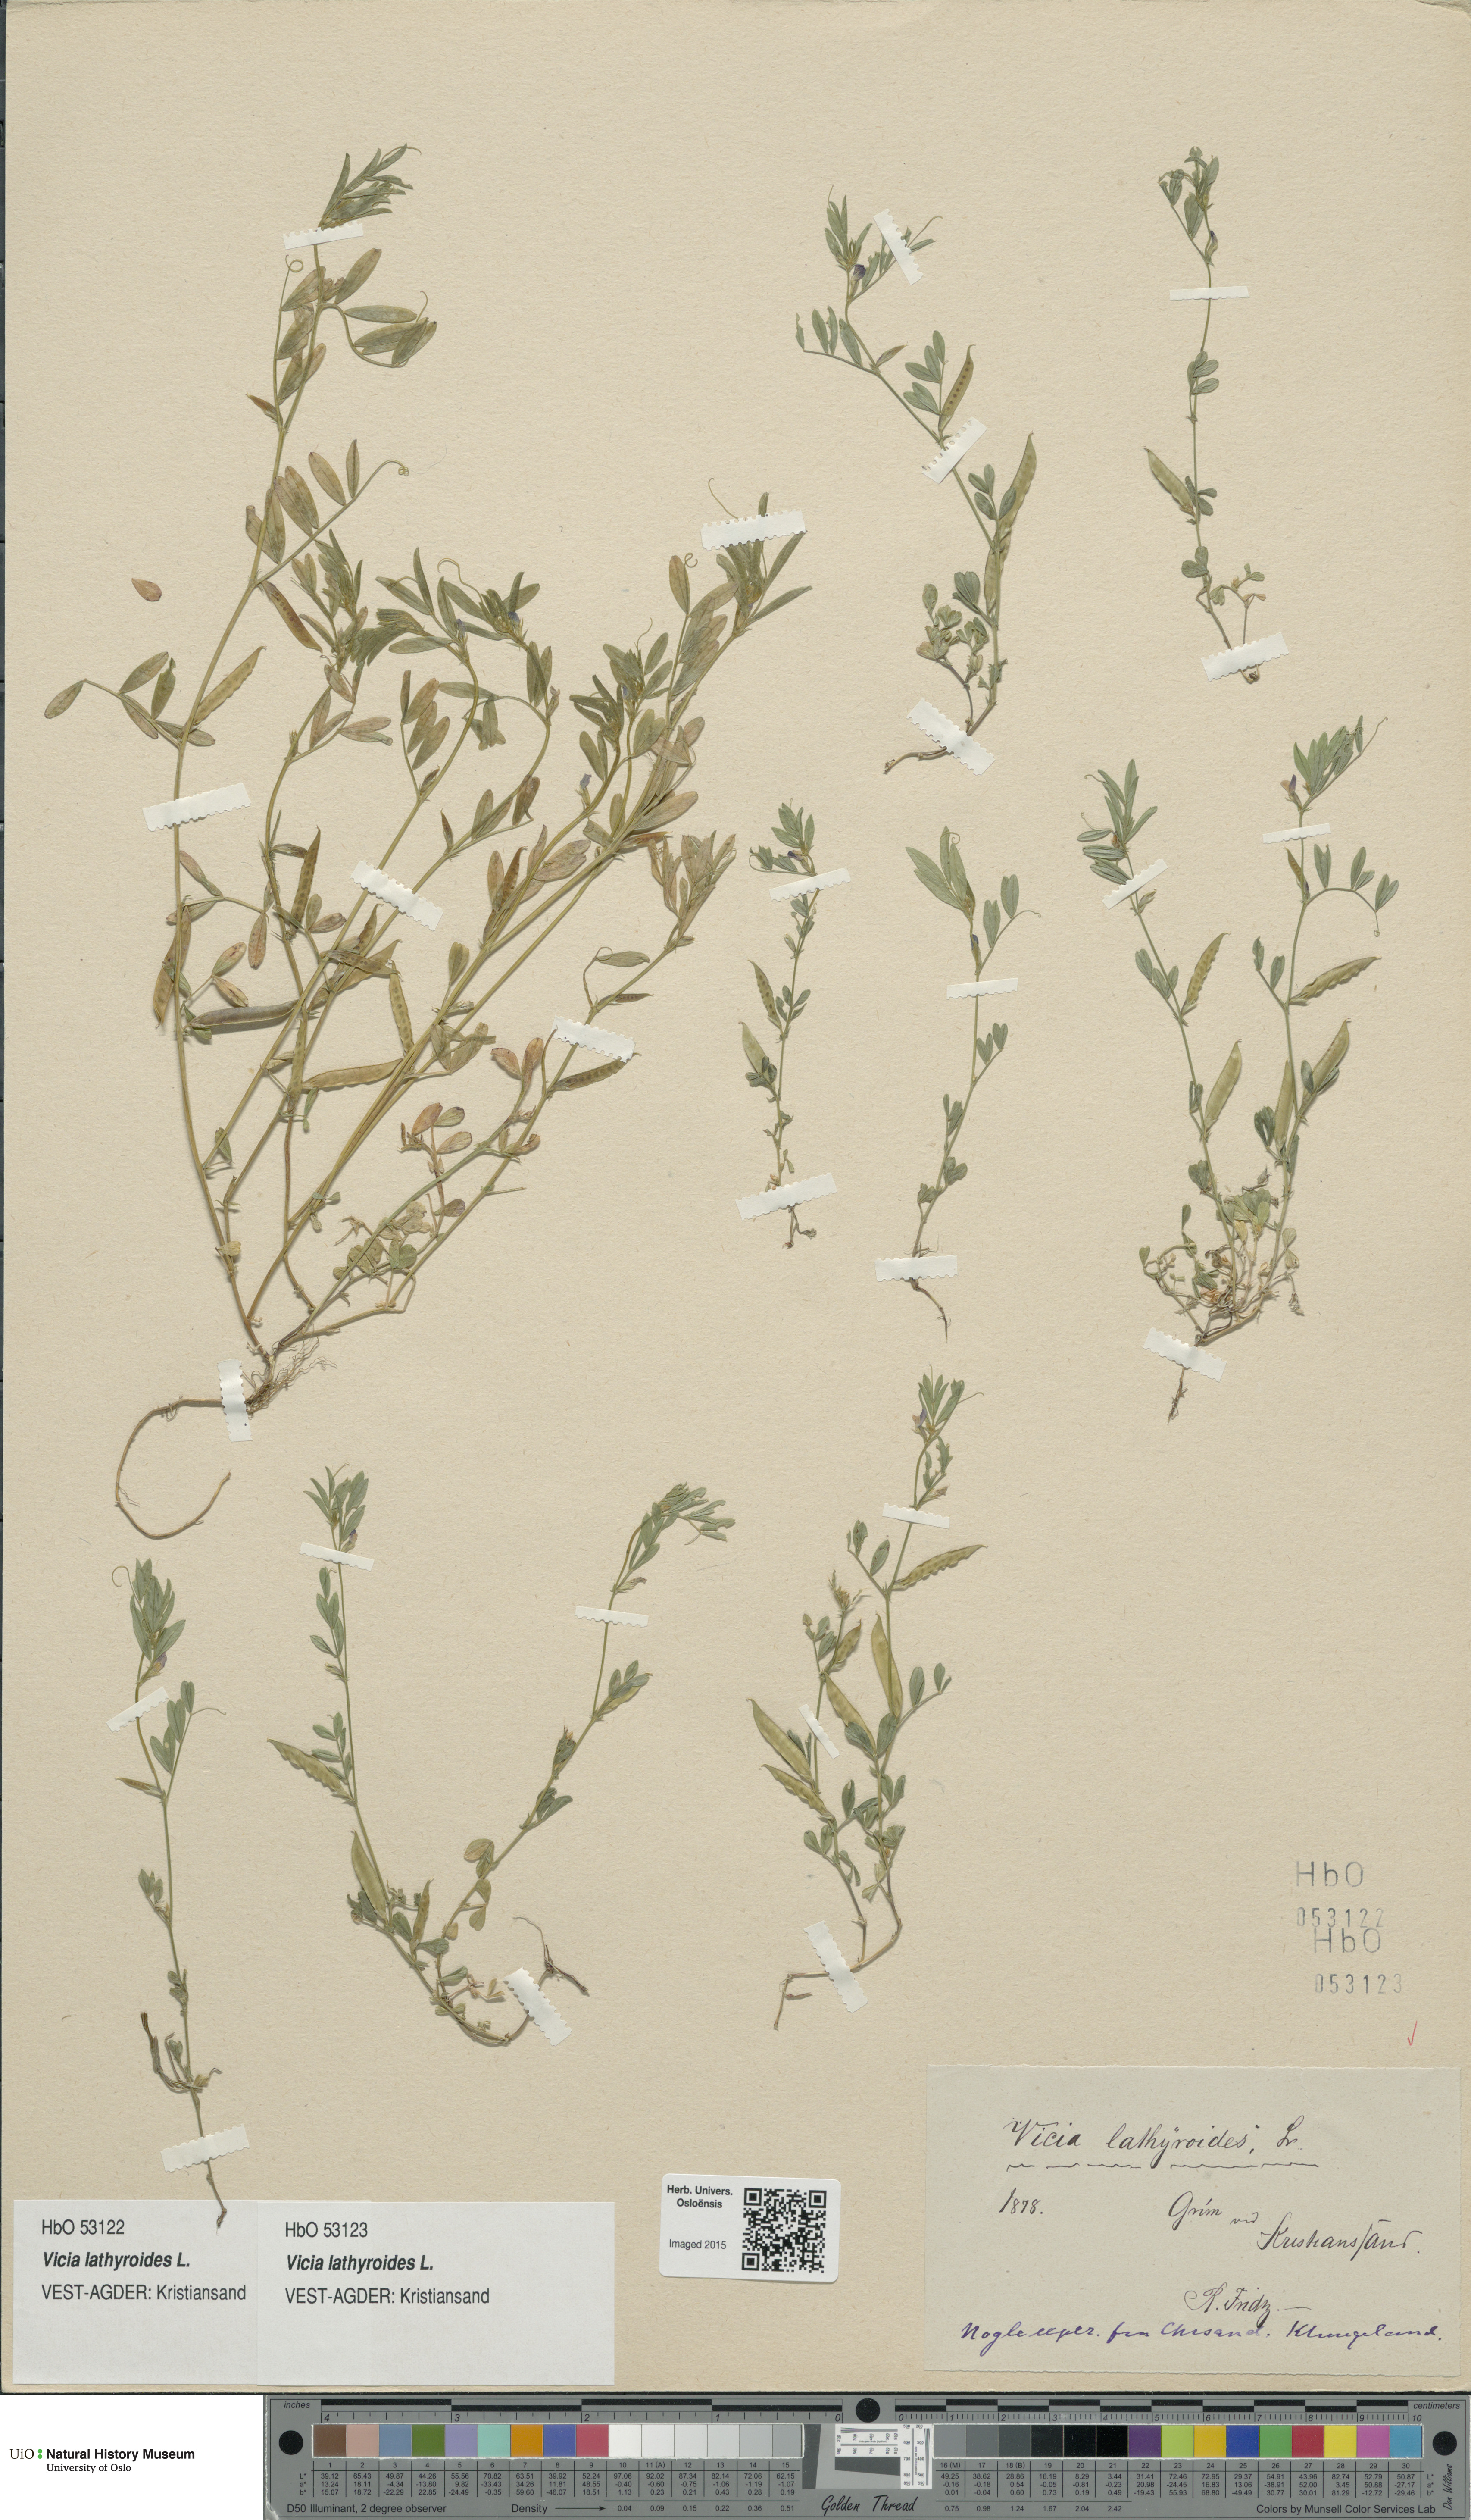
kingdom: Plantae
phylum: Tracheophyta
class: Magnoliopsida
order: Fabales
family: Fabaceae
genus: Vicia
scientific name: Vicia lathyroides
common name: Spring vetch
